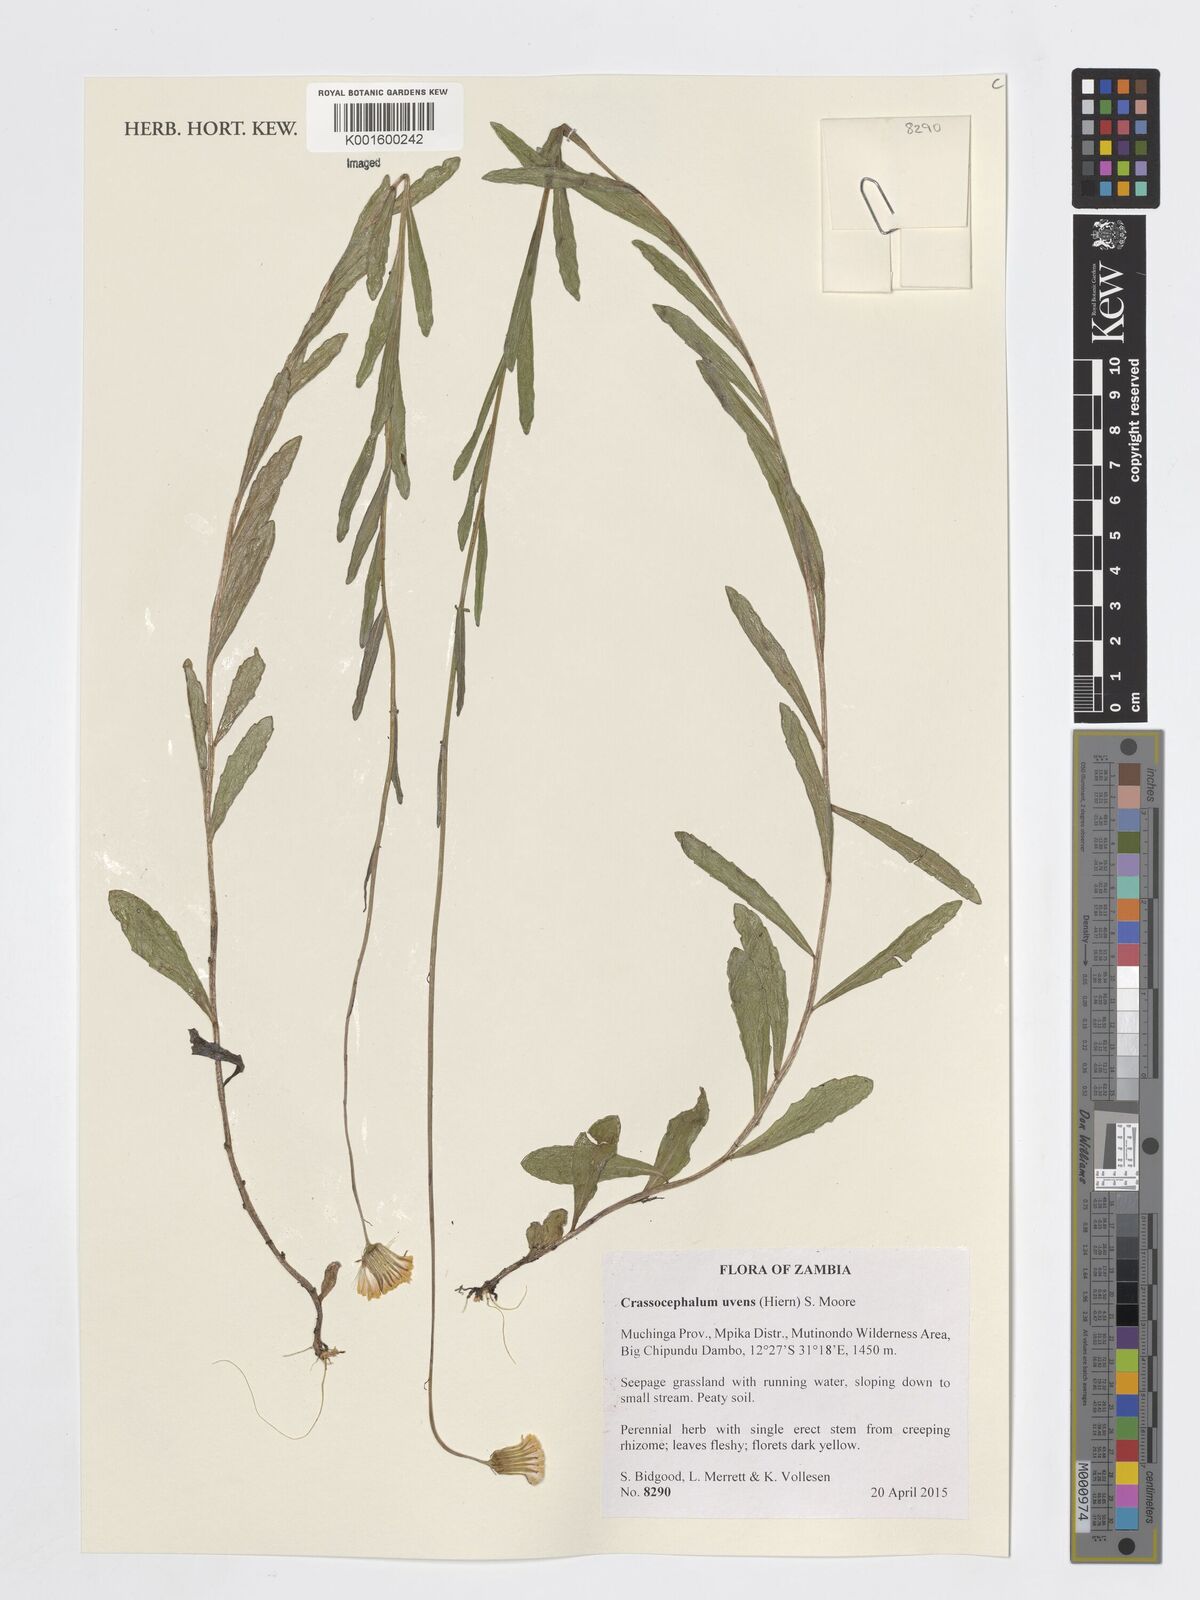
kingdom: Plantae
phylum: Tracheophyta
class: Magnoliopsida
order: Asterales
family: Asteraceae
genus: Crassocephalum
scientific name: Crassocephalum uvens
